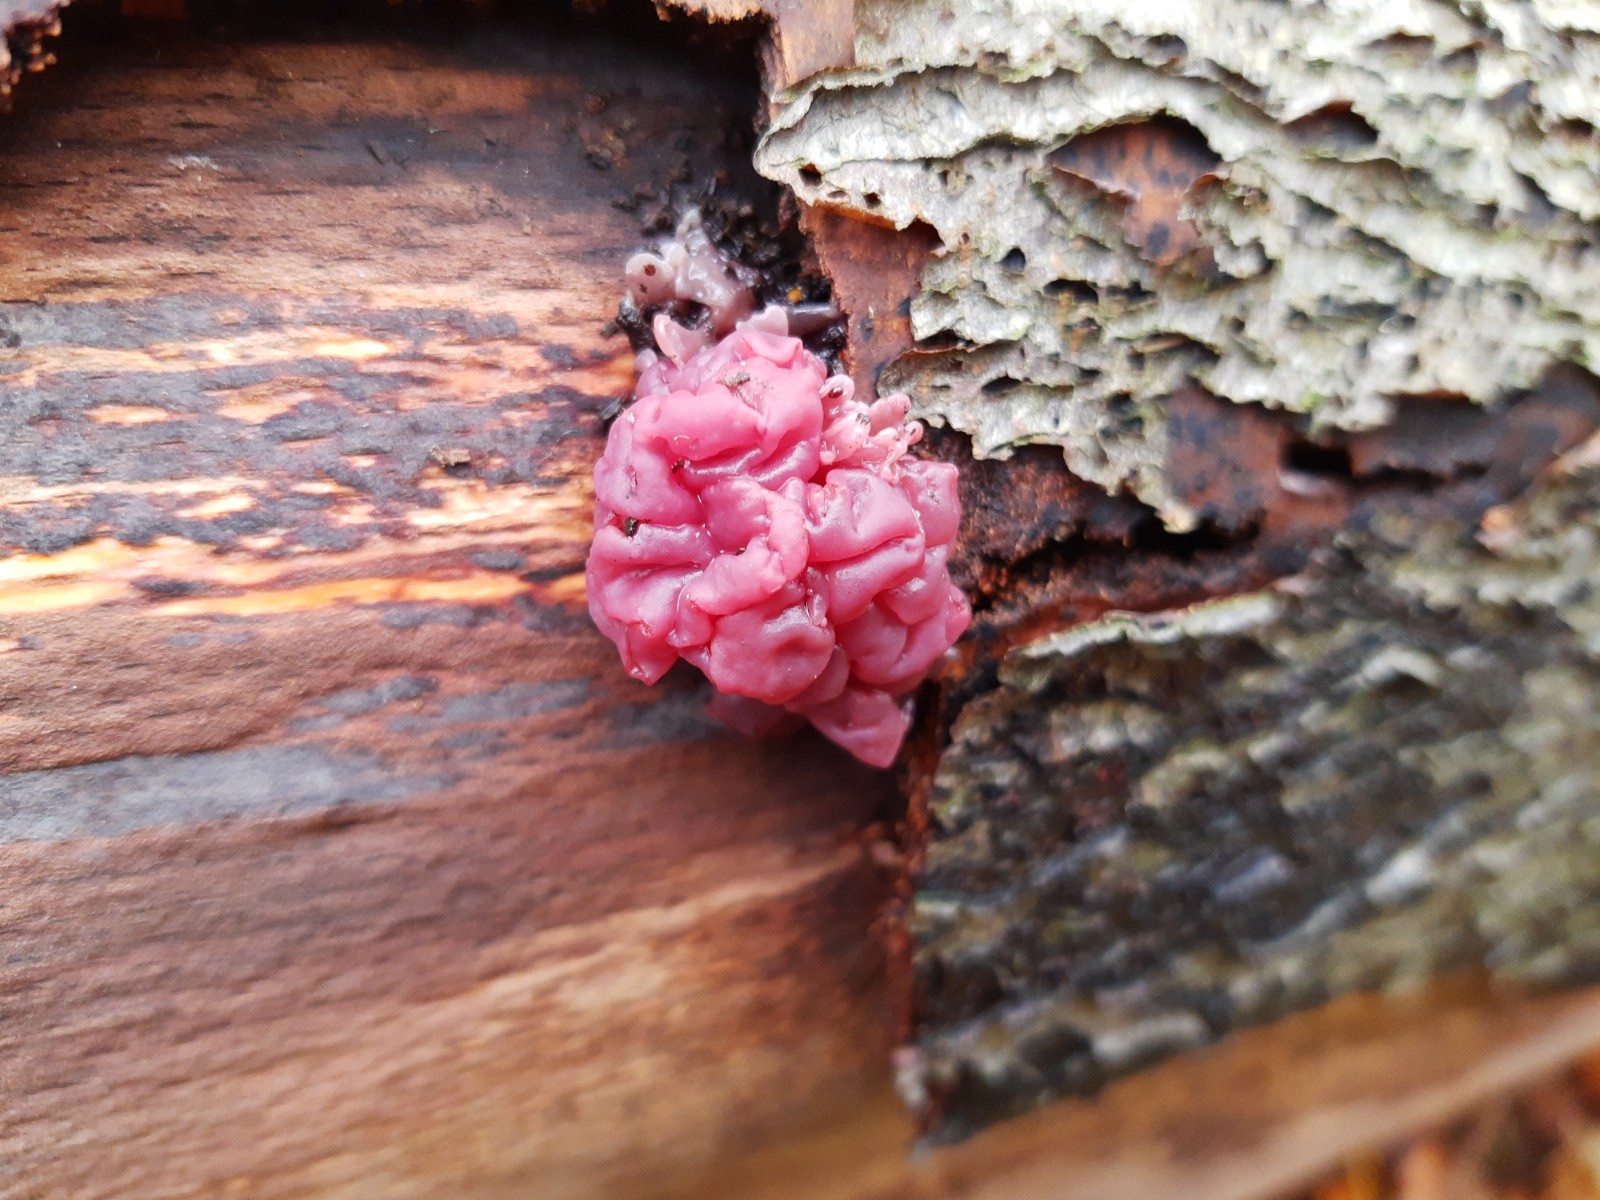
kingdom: Fungi
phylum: Ascomycota
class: Leotiomycetes
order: Helotiales
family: Gelatinodiscaceae
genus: Ascocoryne
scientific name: Ascocoryne sarcoides
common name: rødlilla sejskive
